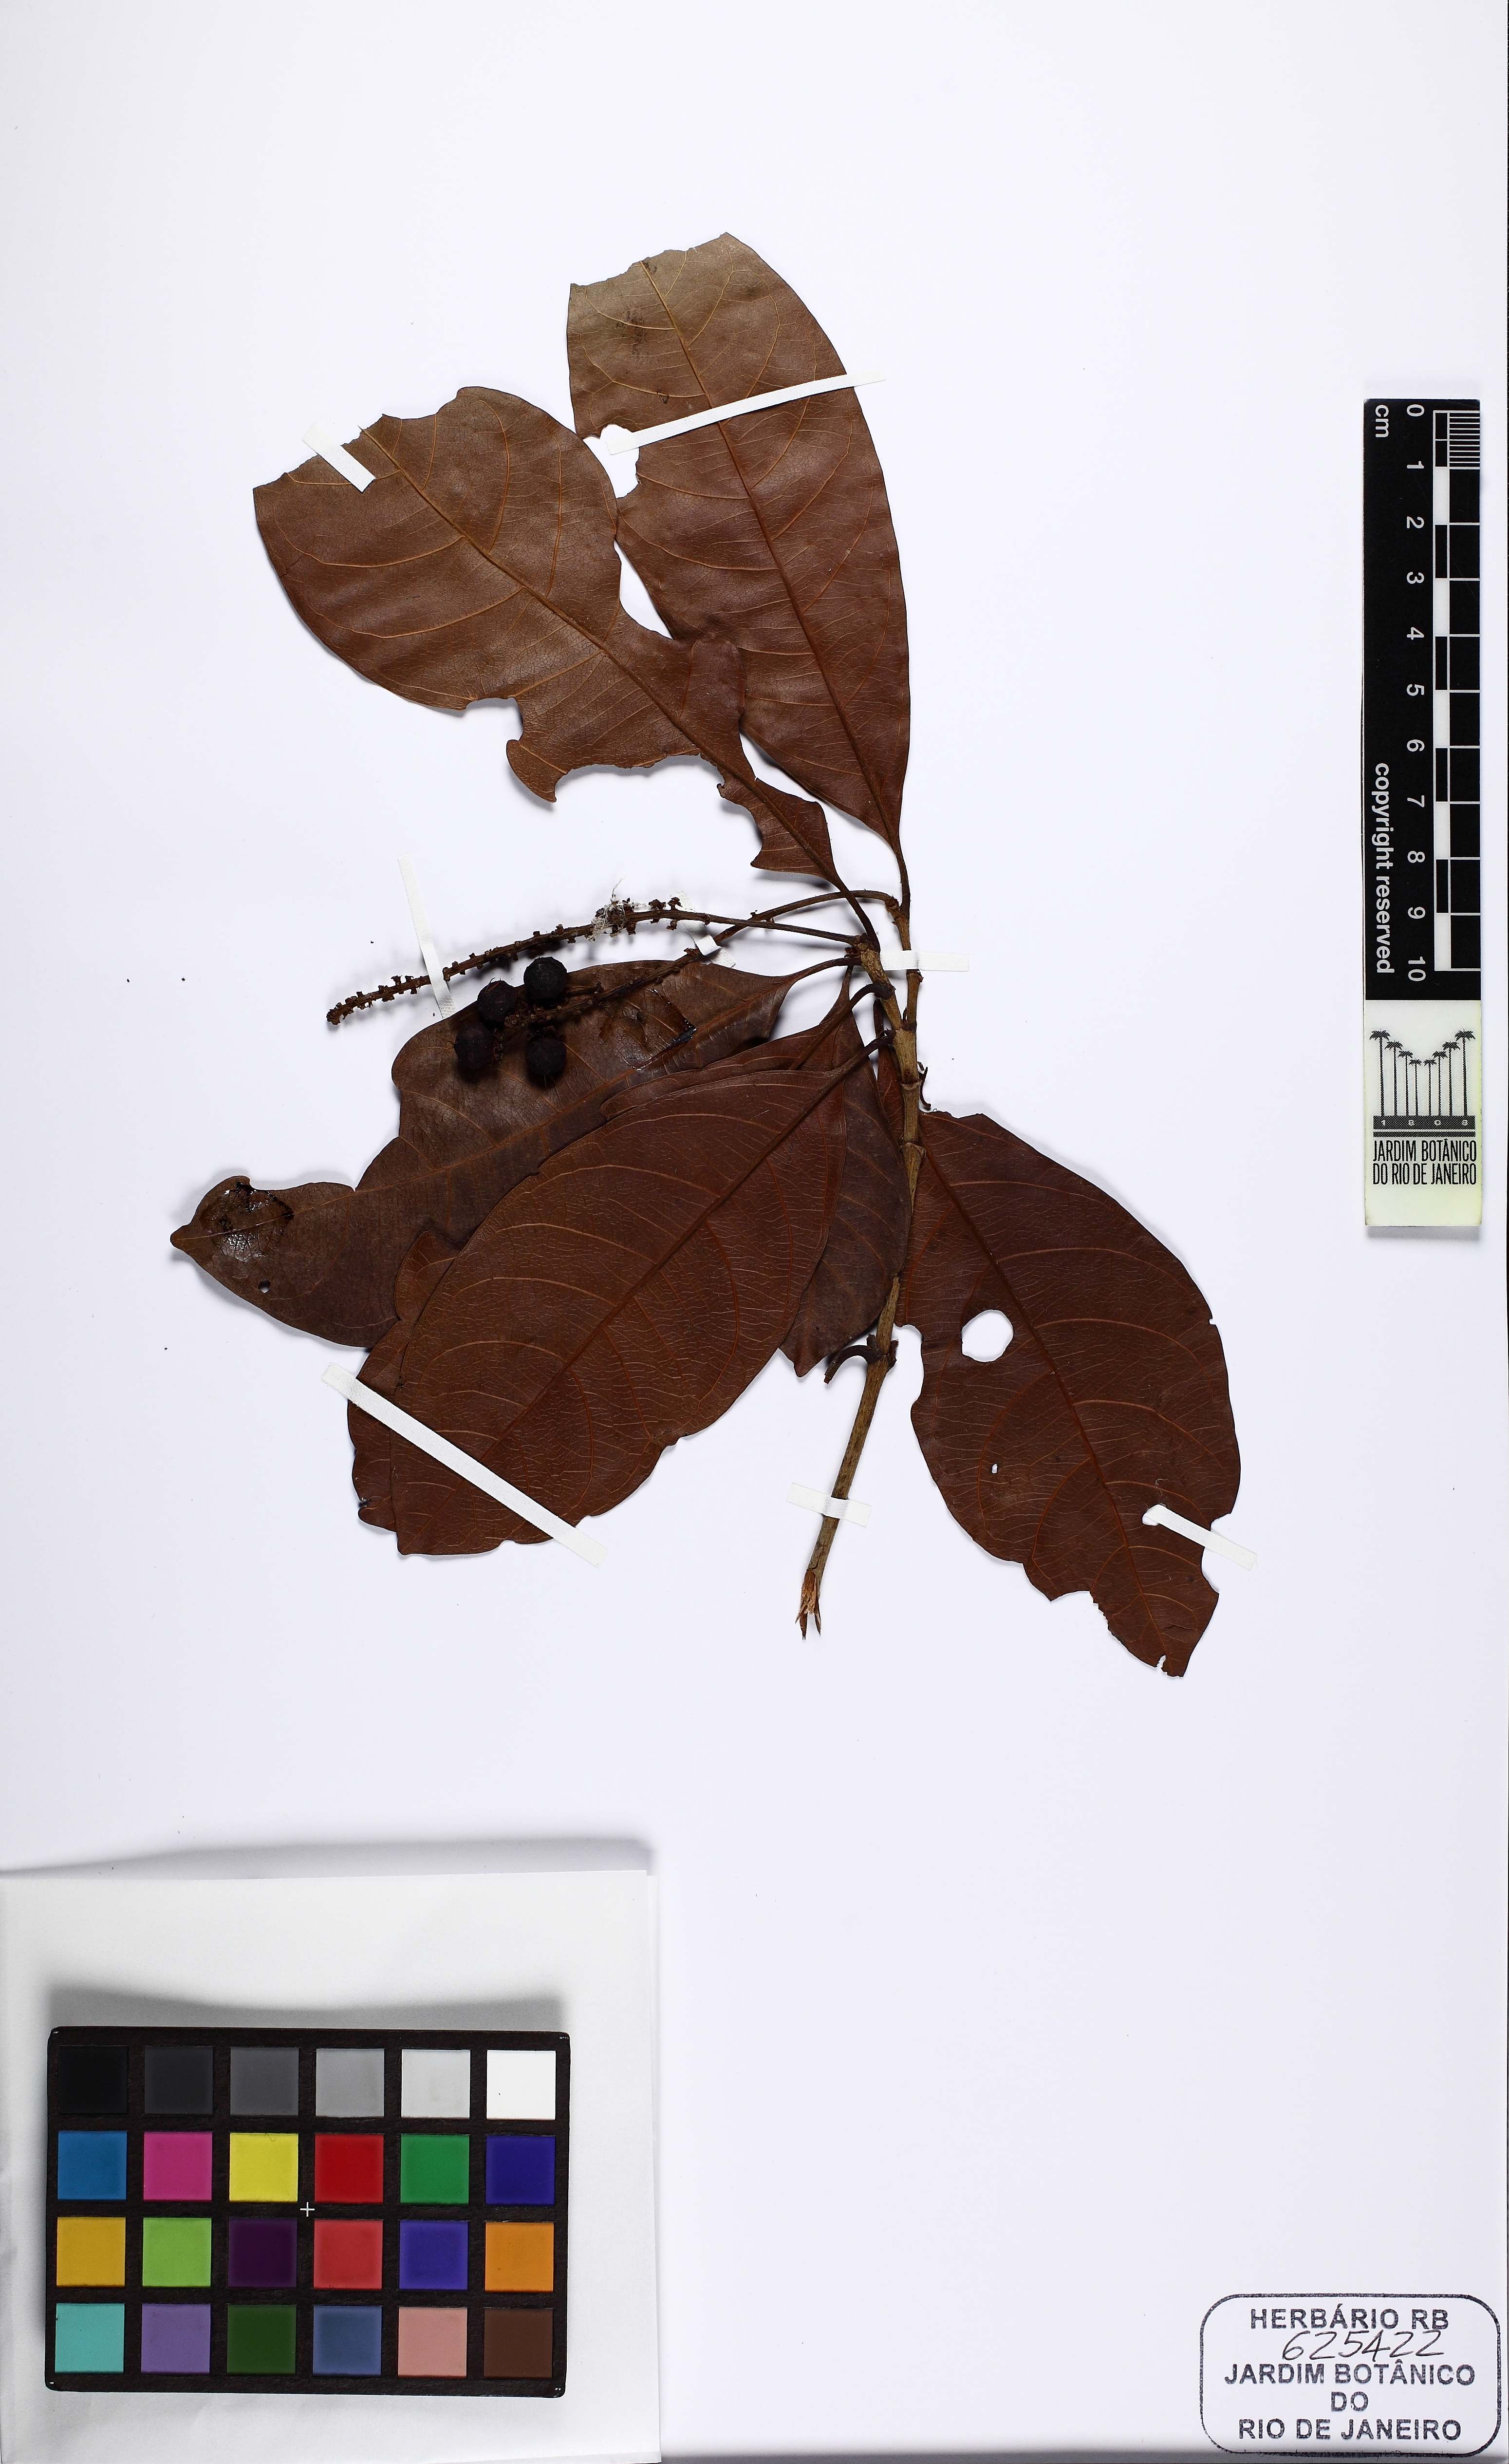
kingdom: Plantae
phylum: Tracheophyta
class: Magnoliopsida
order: Malpighiales
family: Malpighiaceae
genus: Byrsonima
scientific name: Byrsonima crispa
